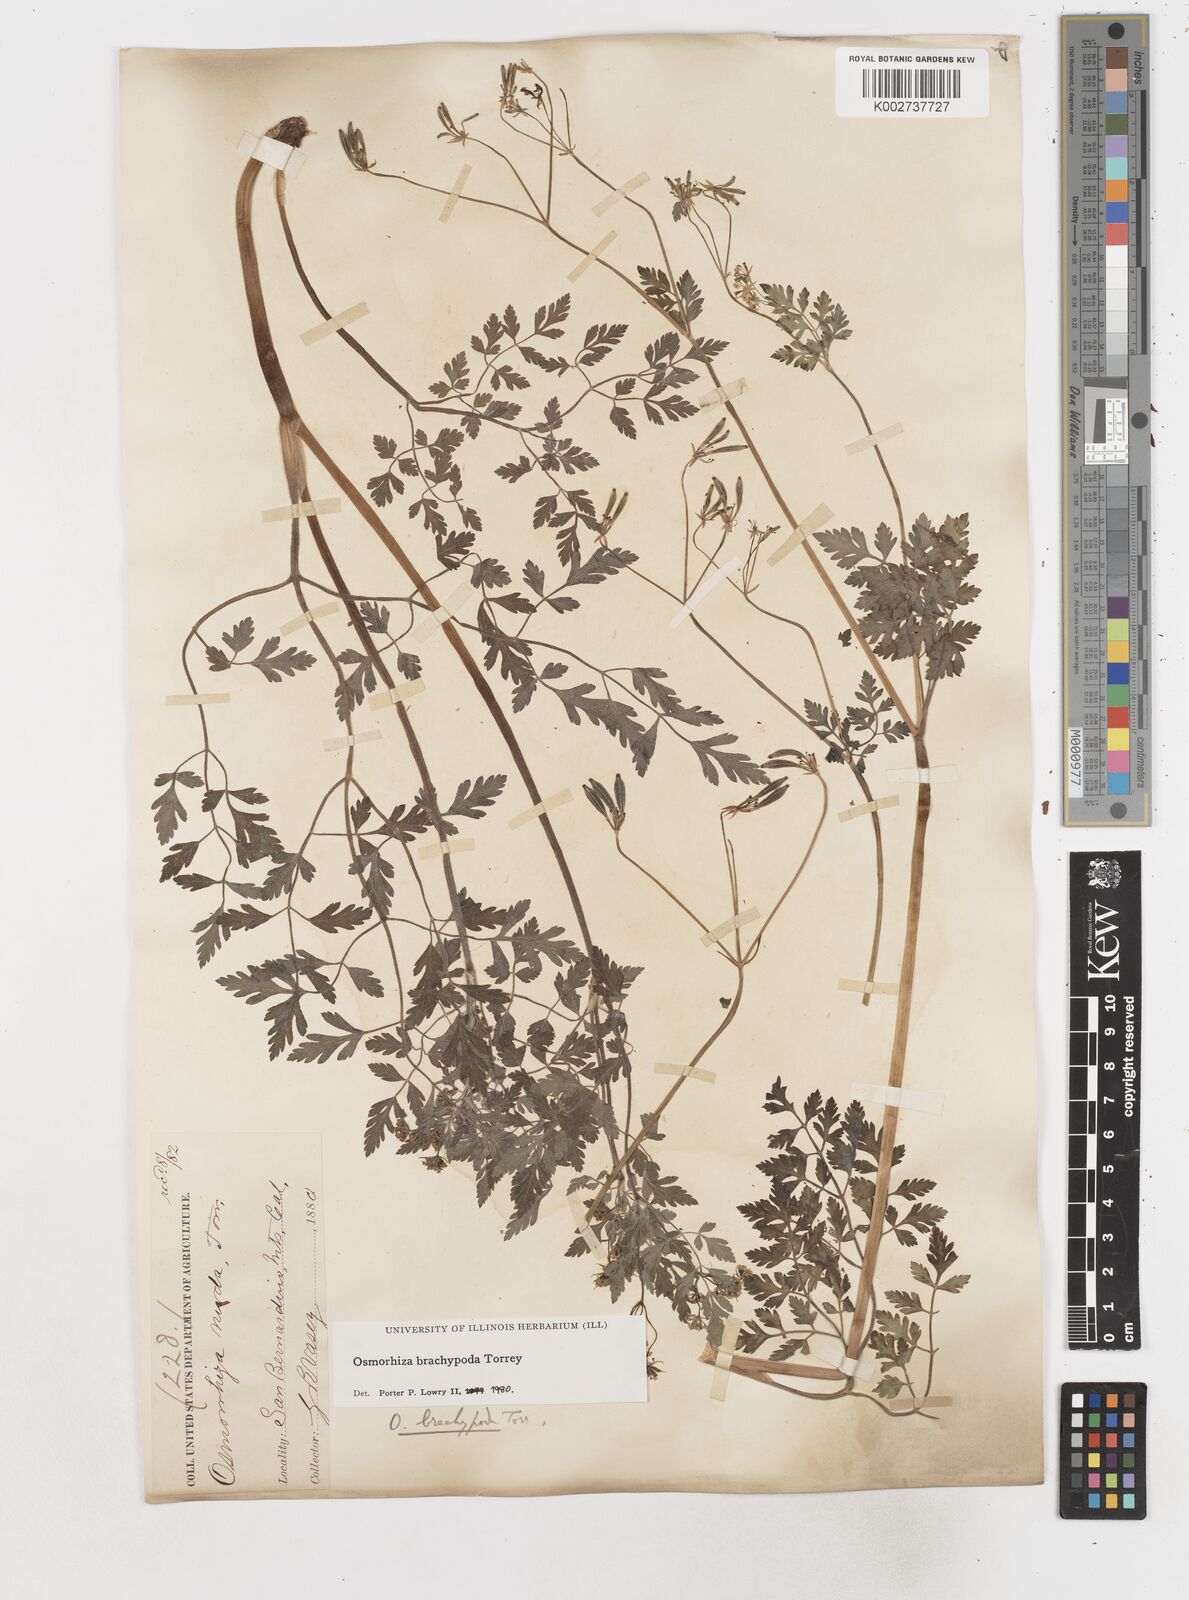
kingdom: Plantae
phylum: Tracheophyta
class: Magnoliopsida
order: Apiales
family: Apiaceae
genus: Osmorhiza
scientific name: Osmorhiza brachypoda
